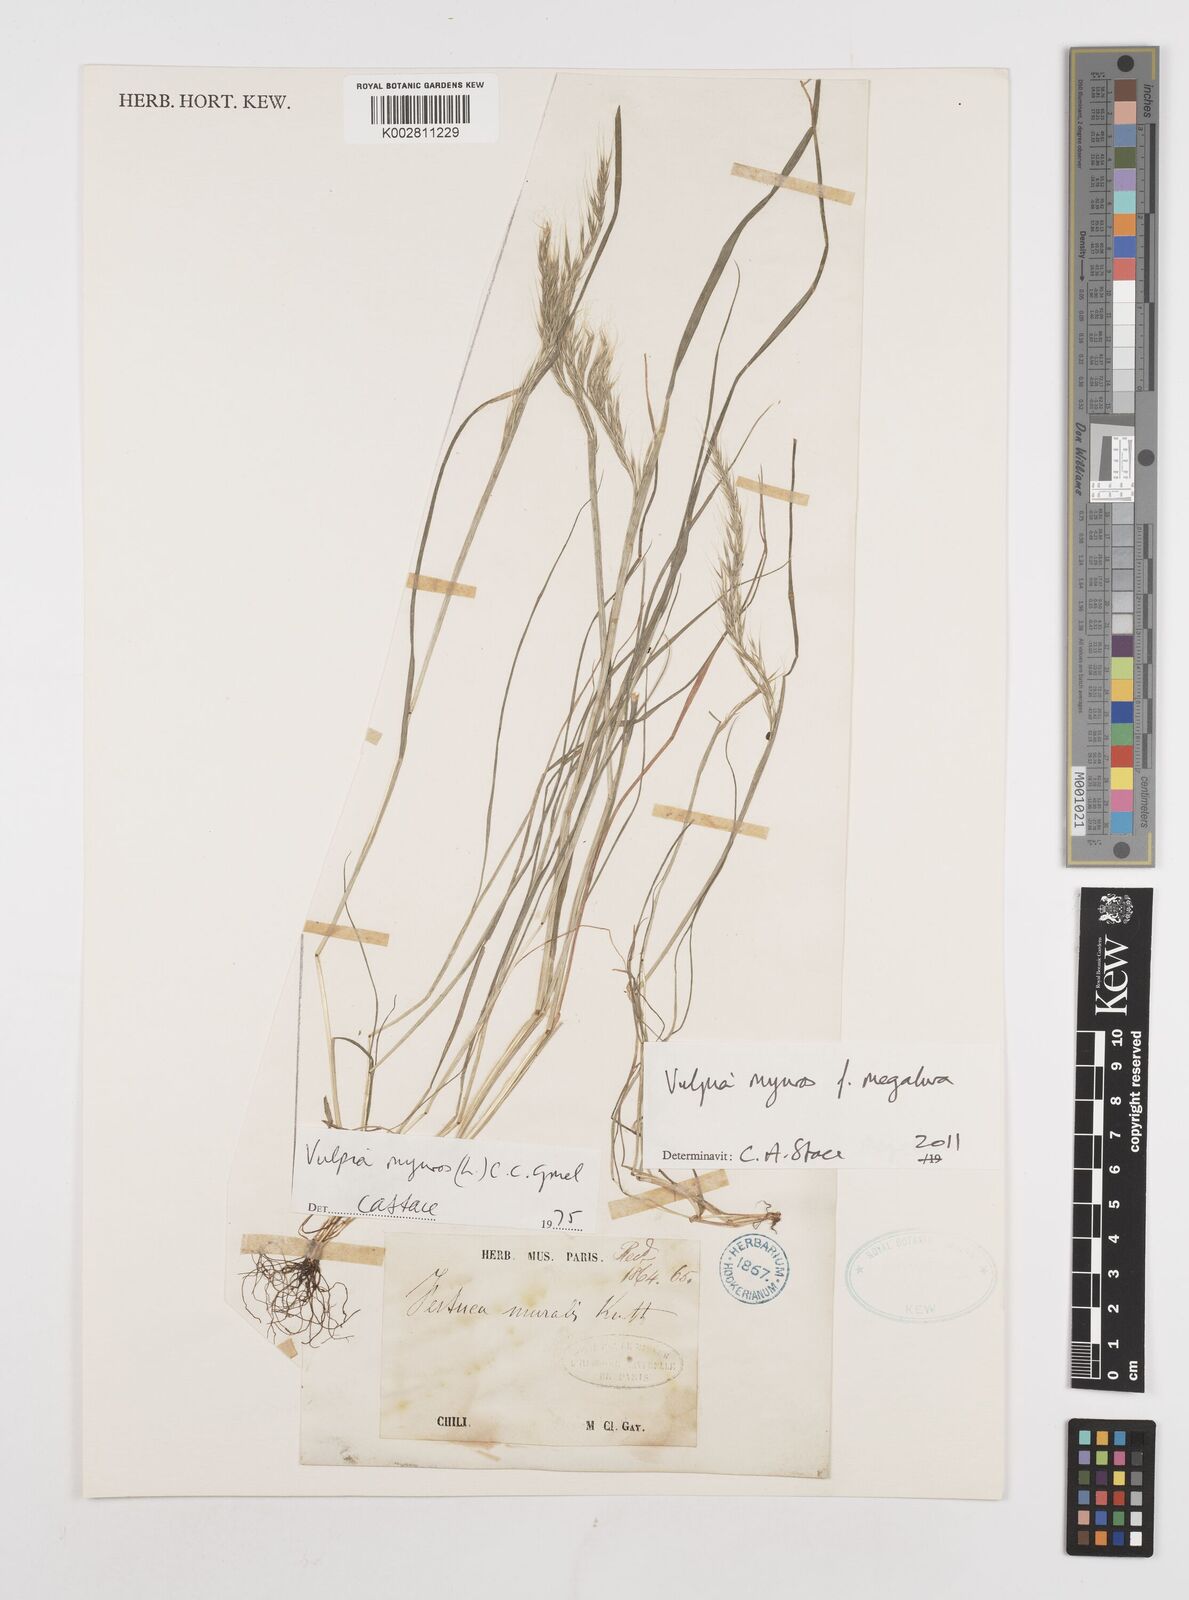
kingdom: Plantae
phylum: Tracheophyta
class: Liliopsida
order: Poales
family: Poaceae
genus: Festuca
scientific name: Festuca myuros
